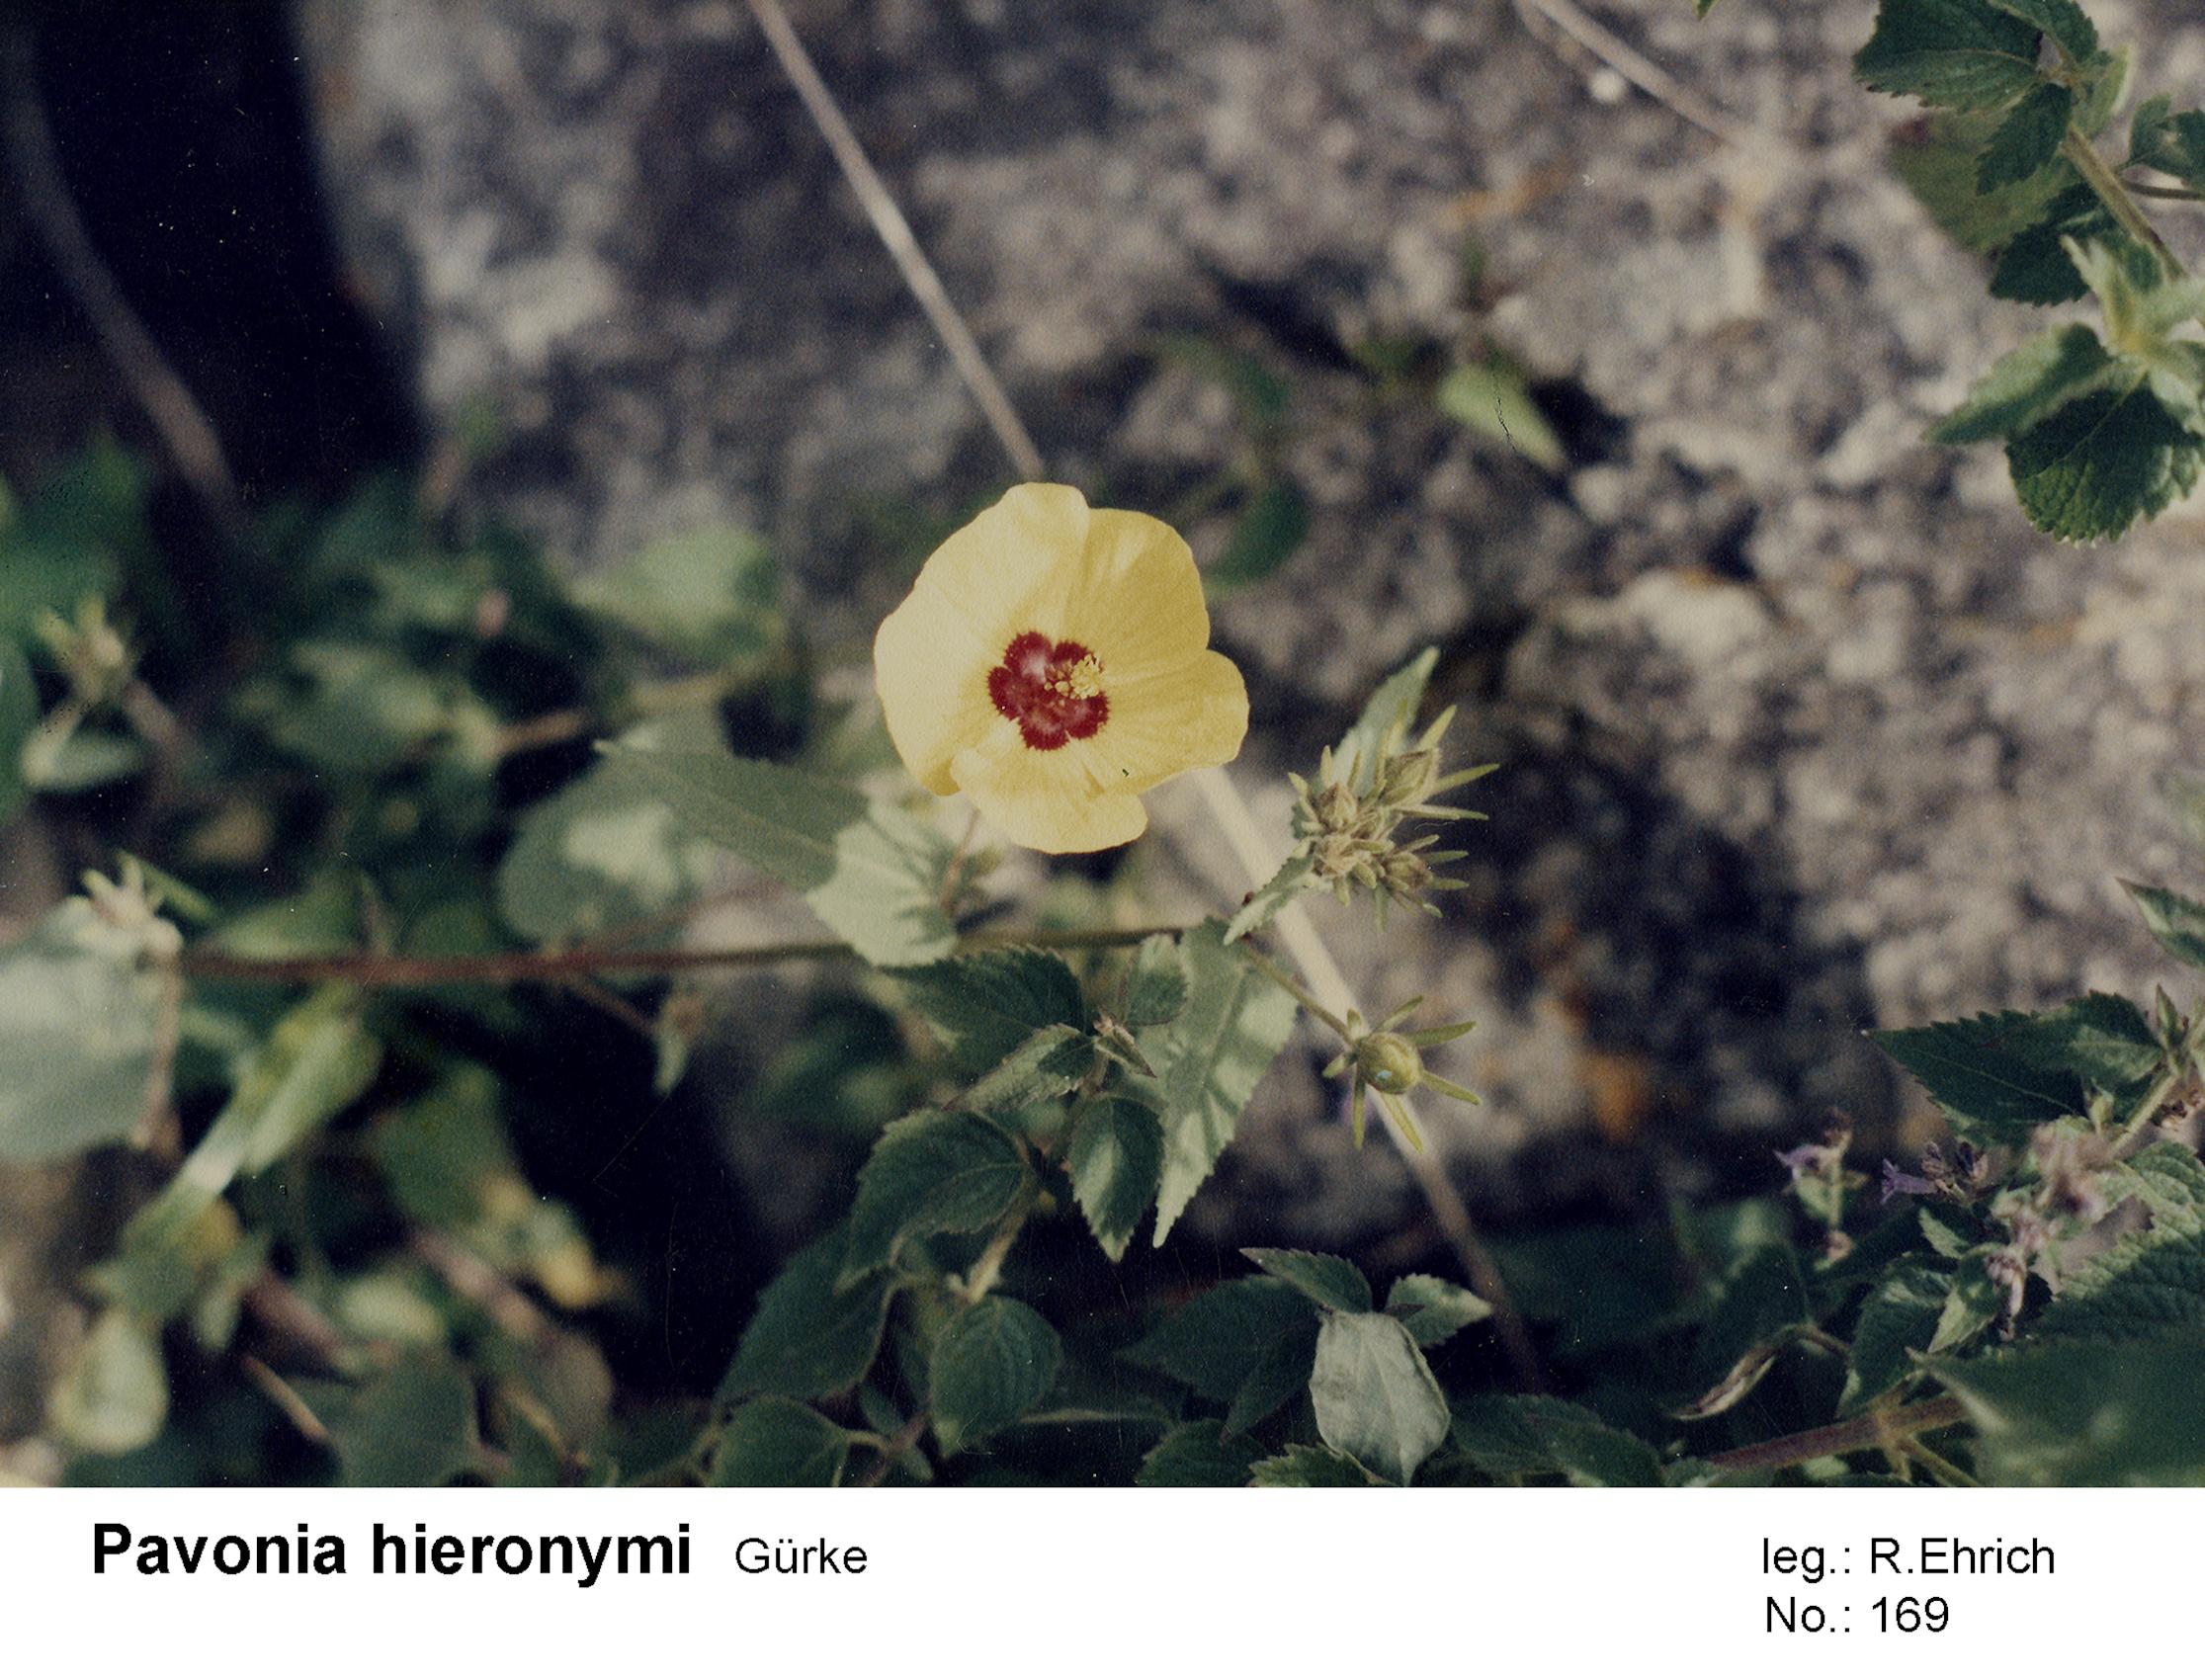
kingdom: Plantae
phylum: Tracheophyta
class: Magnoliopsida
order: Malvales
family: Malvaceae
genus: Pavonia
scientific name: Pavonia hieronymi
